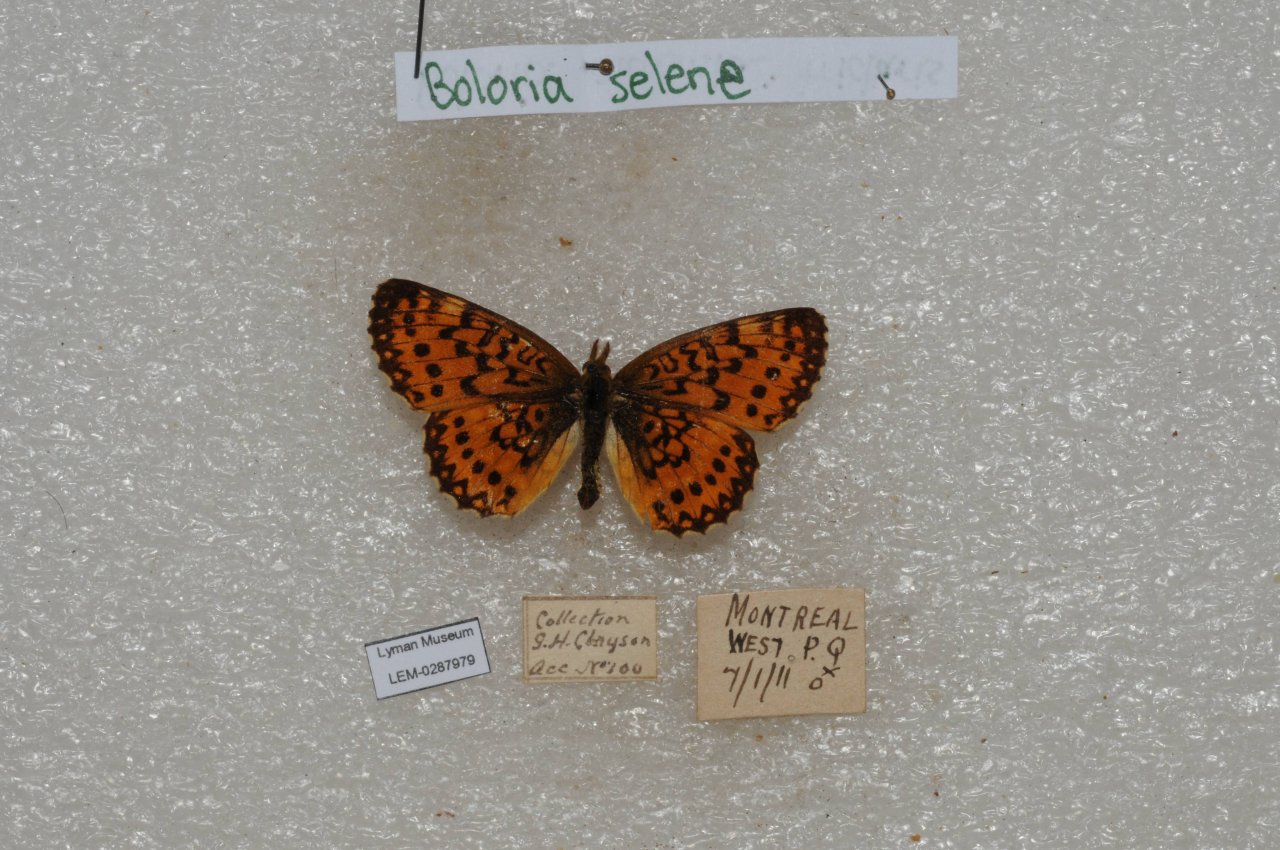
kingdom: Animalia
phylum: Arthropoda
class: Insecta
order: Lepidoptera
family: Nymphalidae
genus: Boloria
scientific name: Boloria selene
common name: Silver-bordered Fritillary
